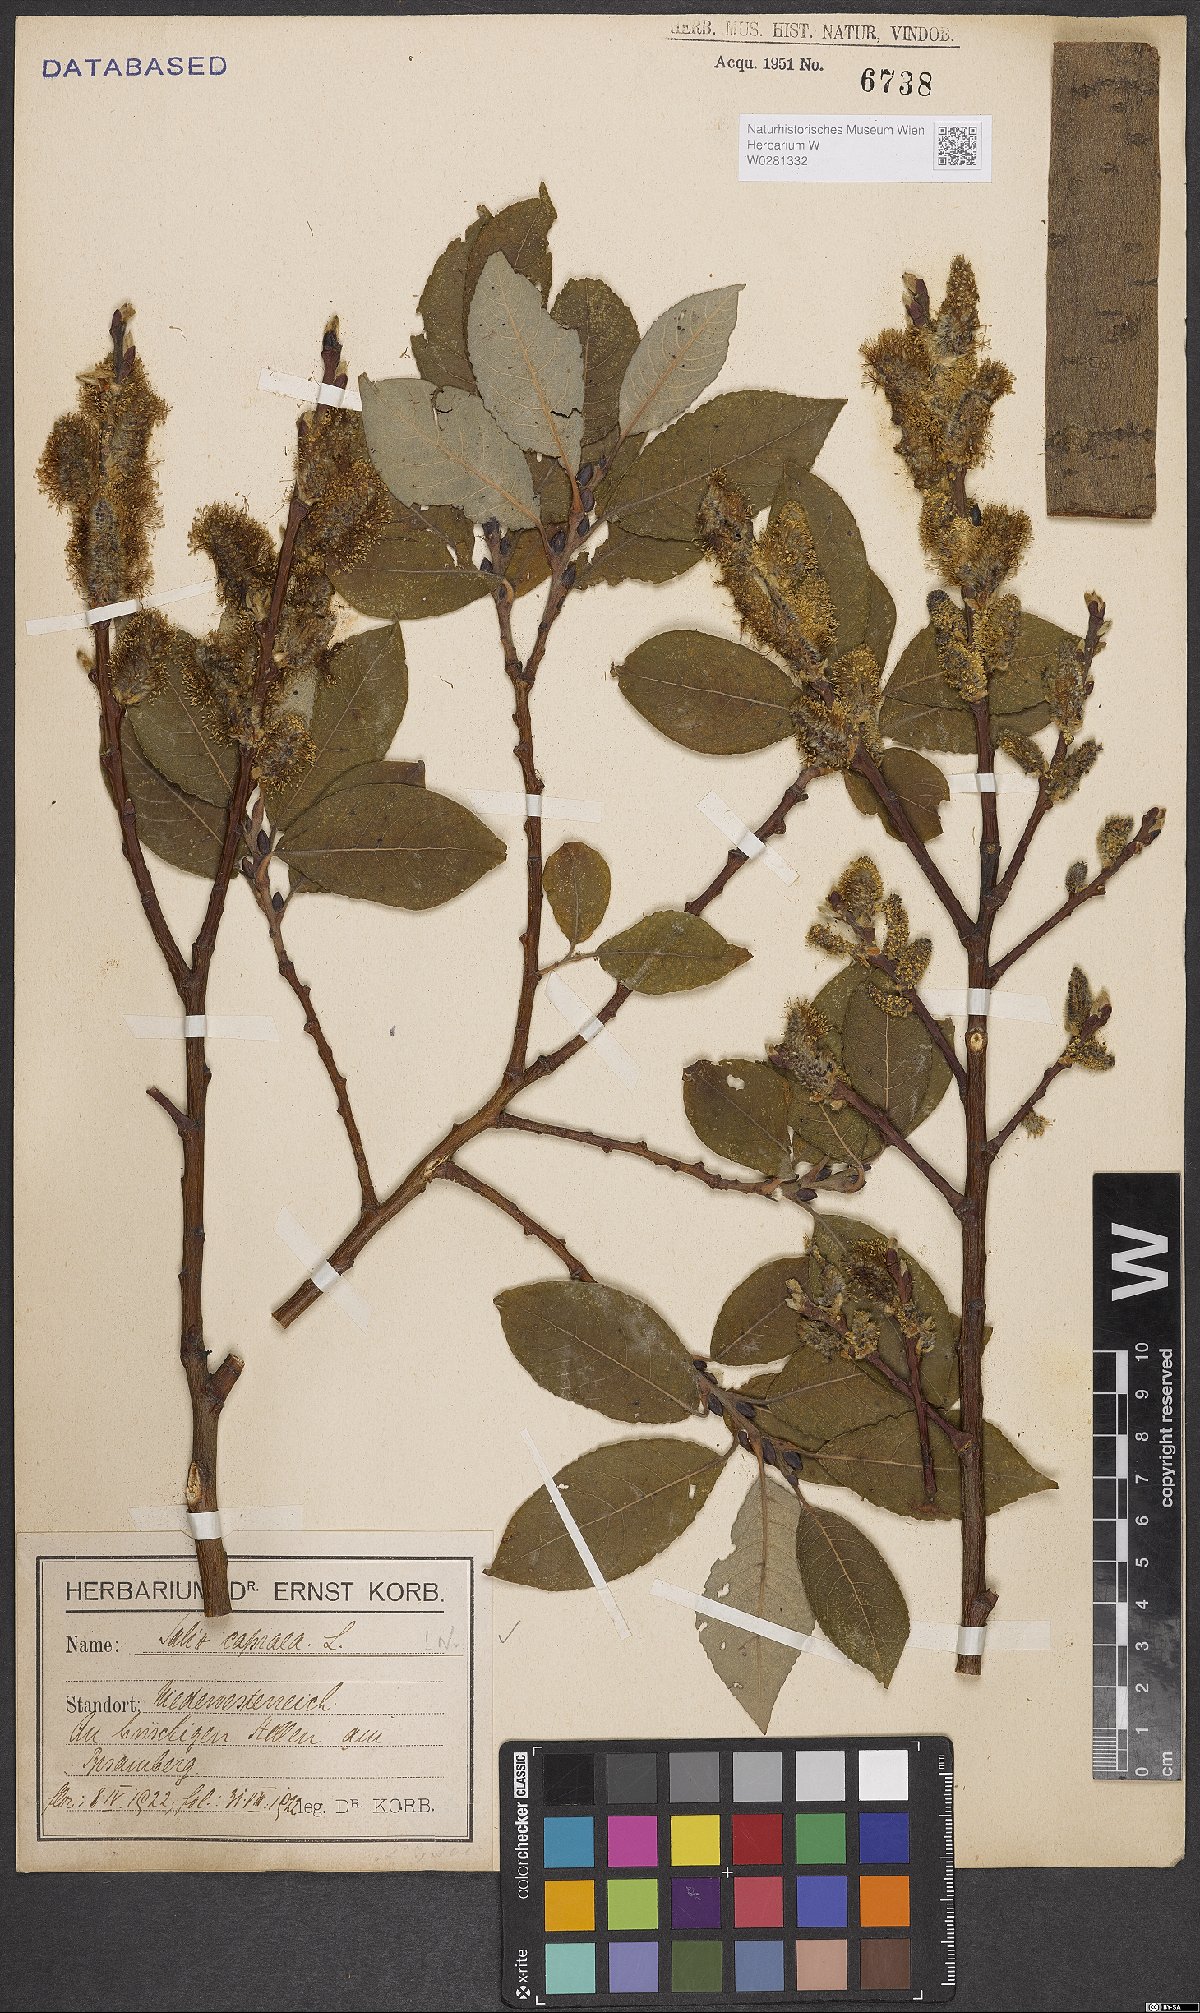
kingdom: Plantae
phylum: Tracheophyta
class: Magnoliopsida
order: Malpighiales
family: Salicaceae
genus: Salix
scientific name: Salix caprea
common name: Goat willow
